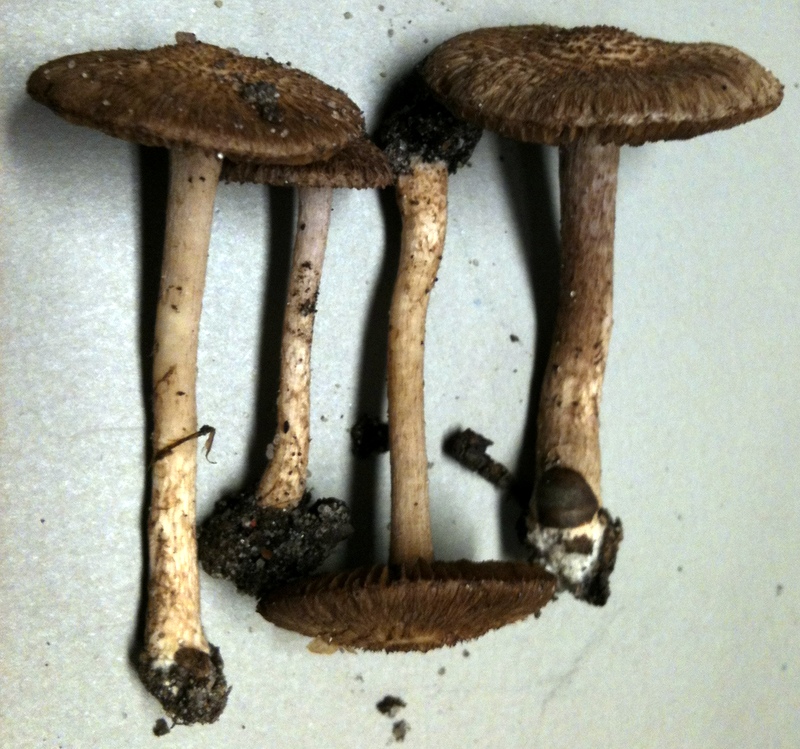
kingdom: Fungi
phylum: Basidiomycota
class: Agaricomycetes
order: Agaricales
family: Inocybaceae
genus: Inocybe
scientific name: Inocybe cincinnata
